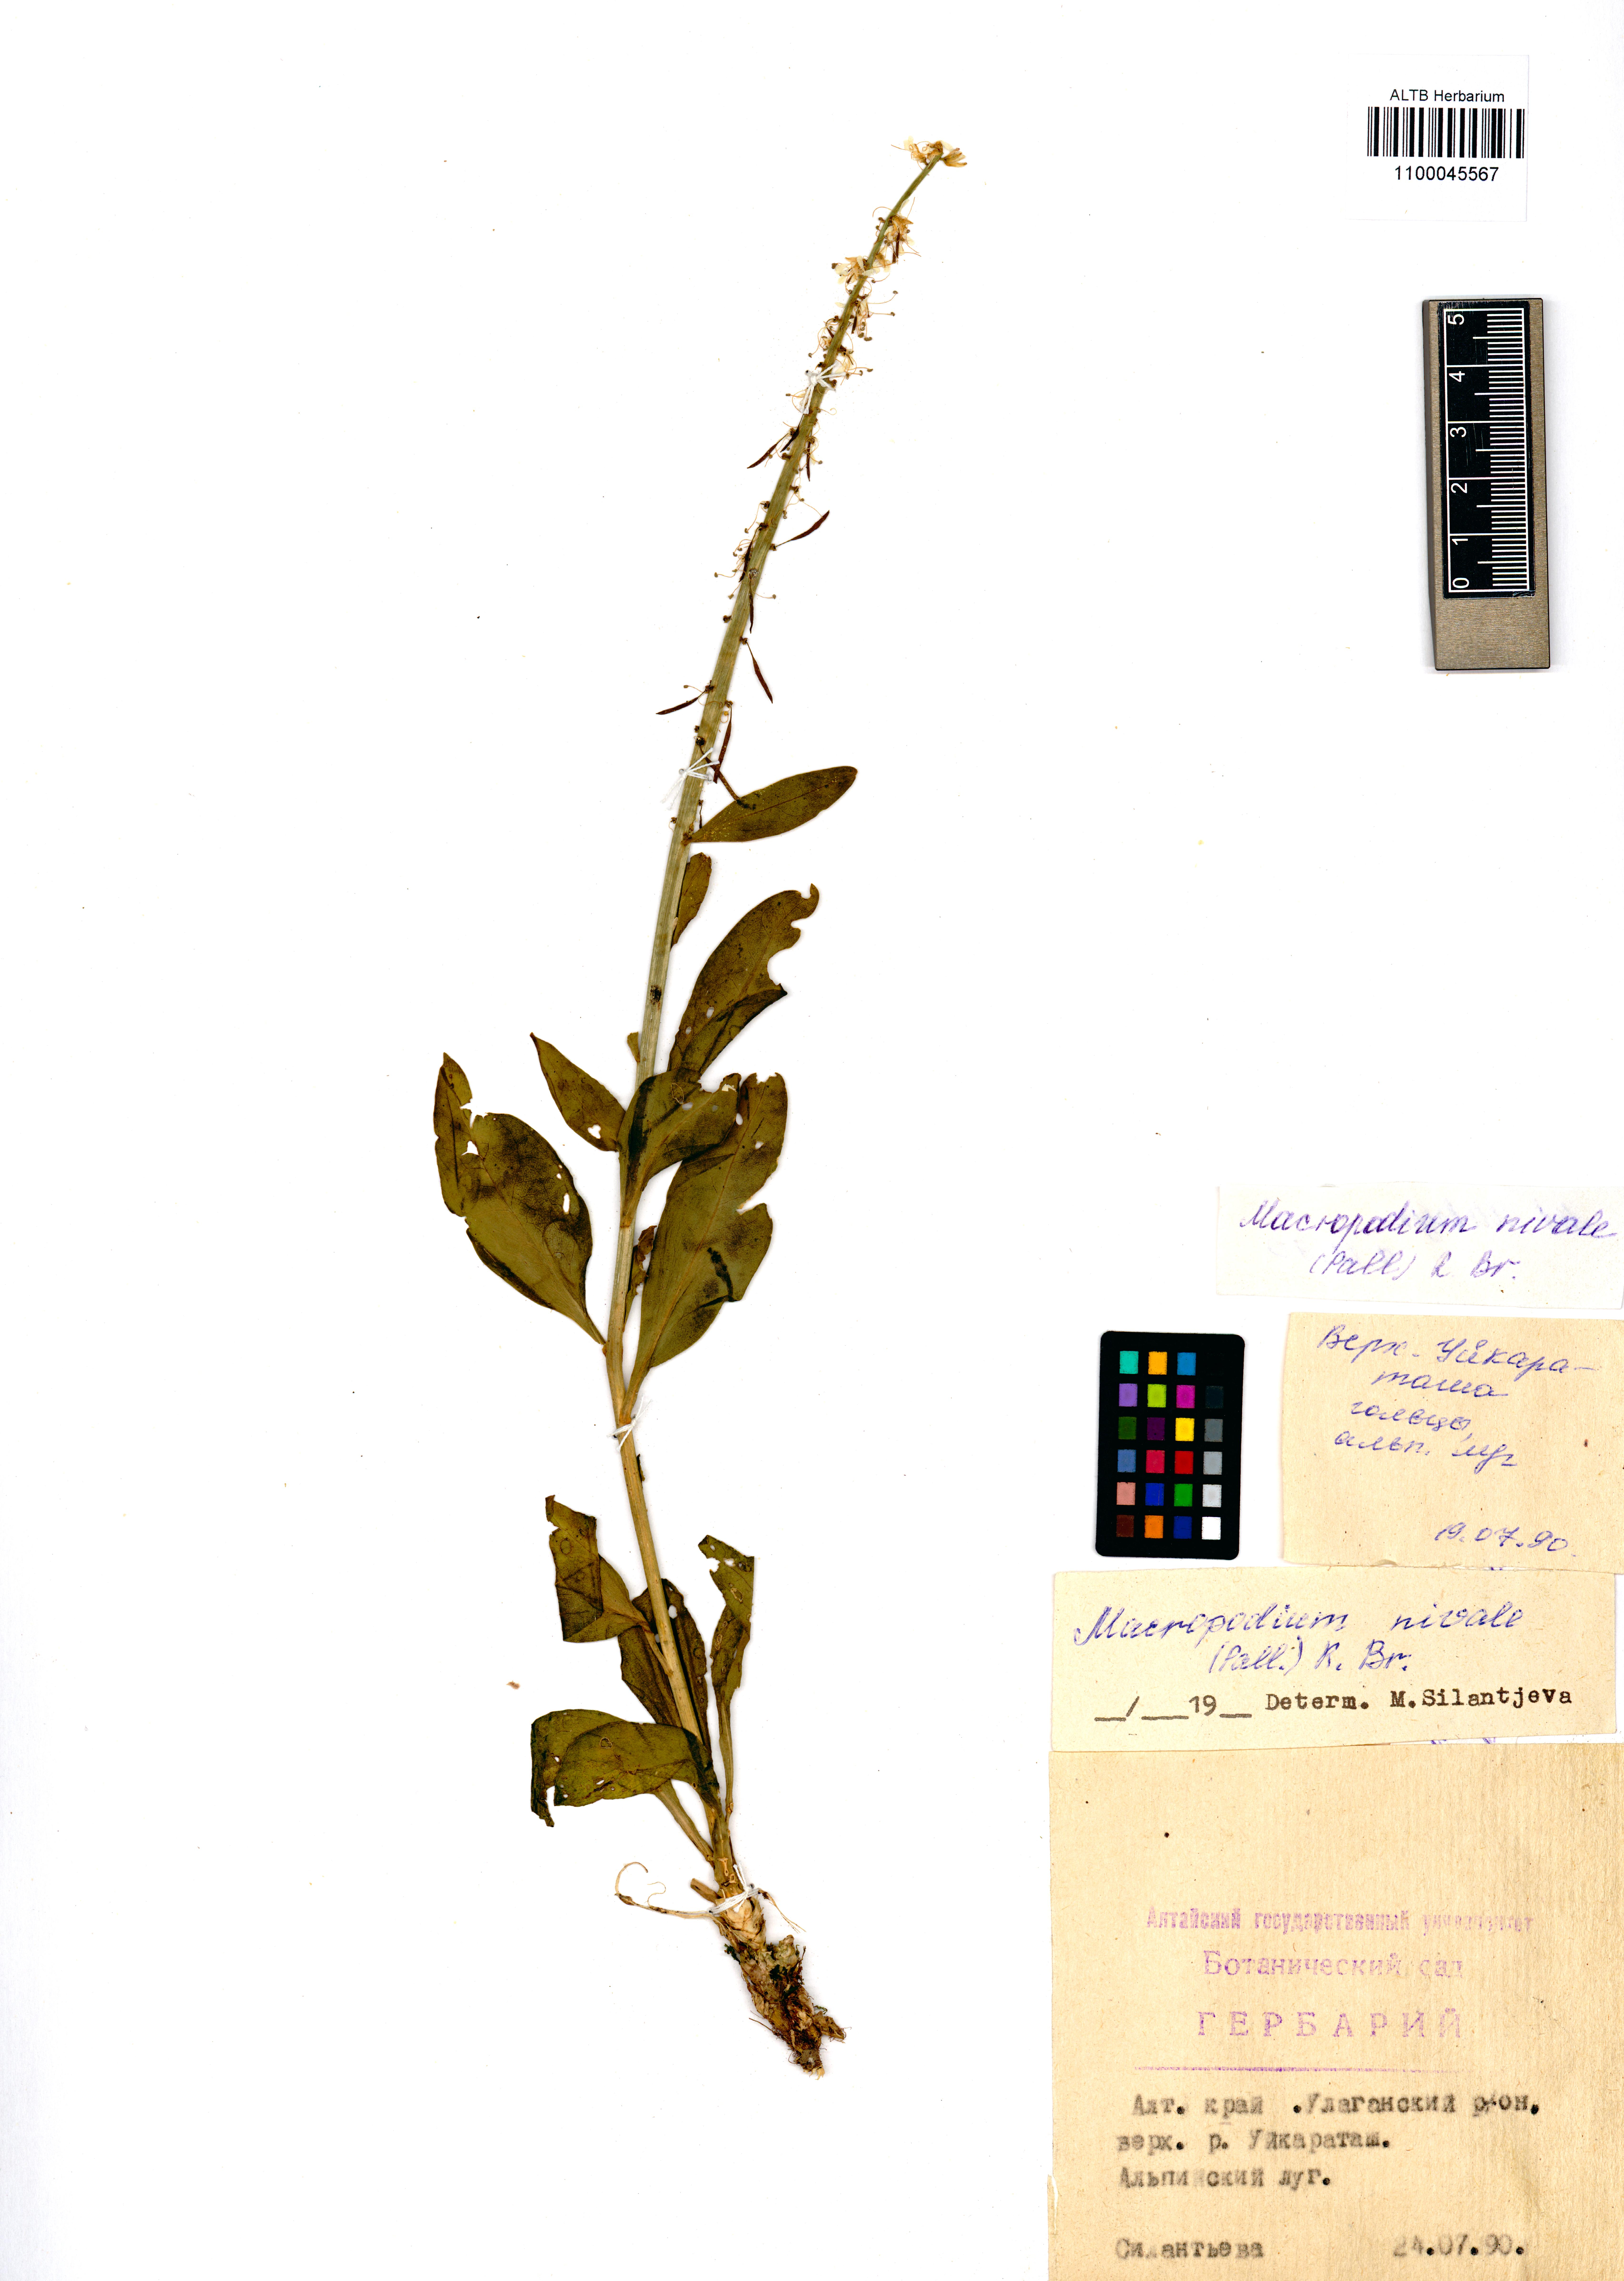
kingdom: Plantae
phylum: Tracheophyta
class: Magnoliopsida
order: Brassicales
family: Brassicaceae
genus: Macropodium
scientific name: Macropodium nivale
